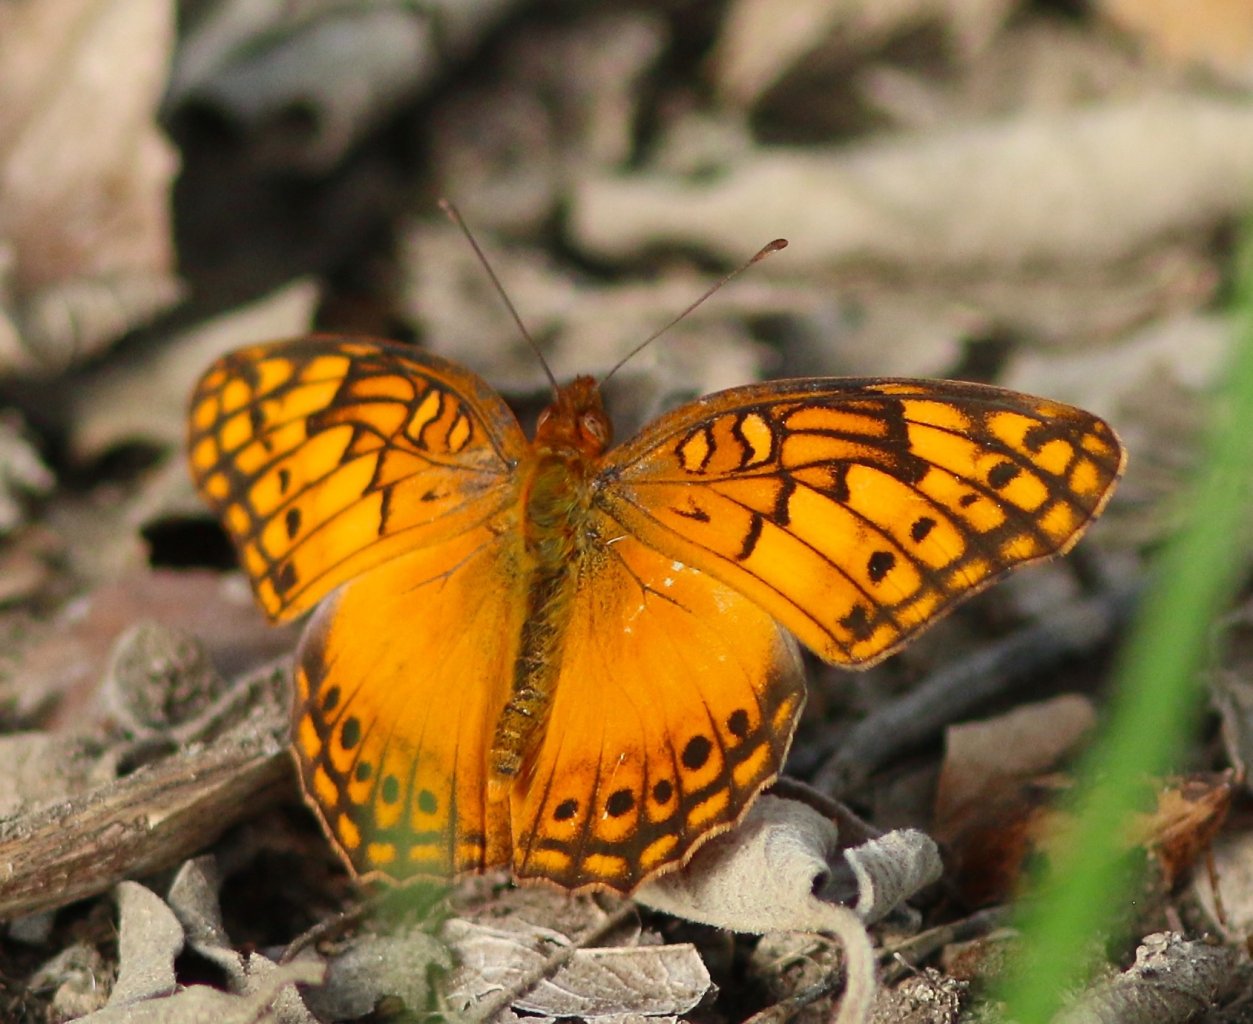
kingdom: Animalia
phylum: Arthropoda
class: Insecta
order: Lepidoptera
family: Nymphalidae
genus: Euptoieta
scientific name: Euptoieta hegesia
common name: Mexican Fritillary
